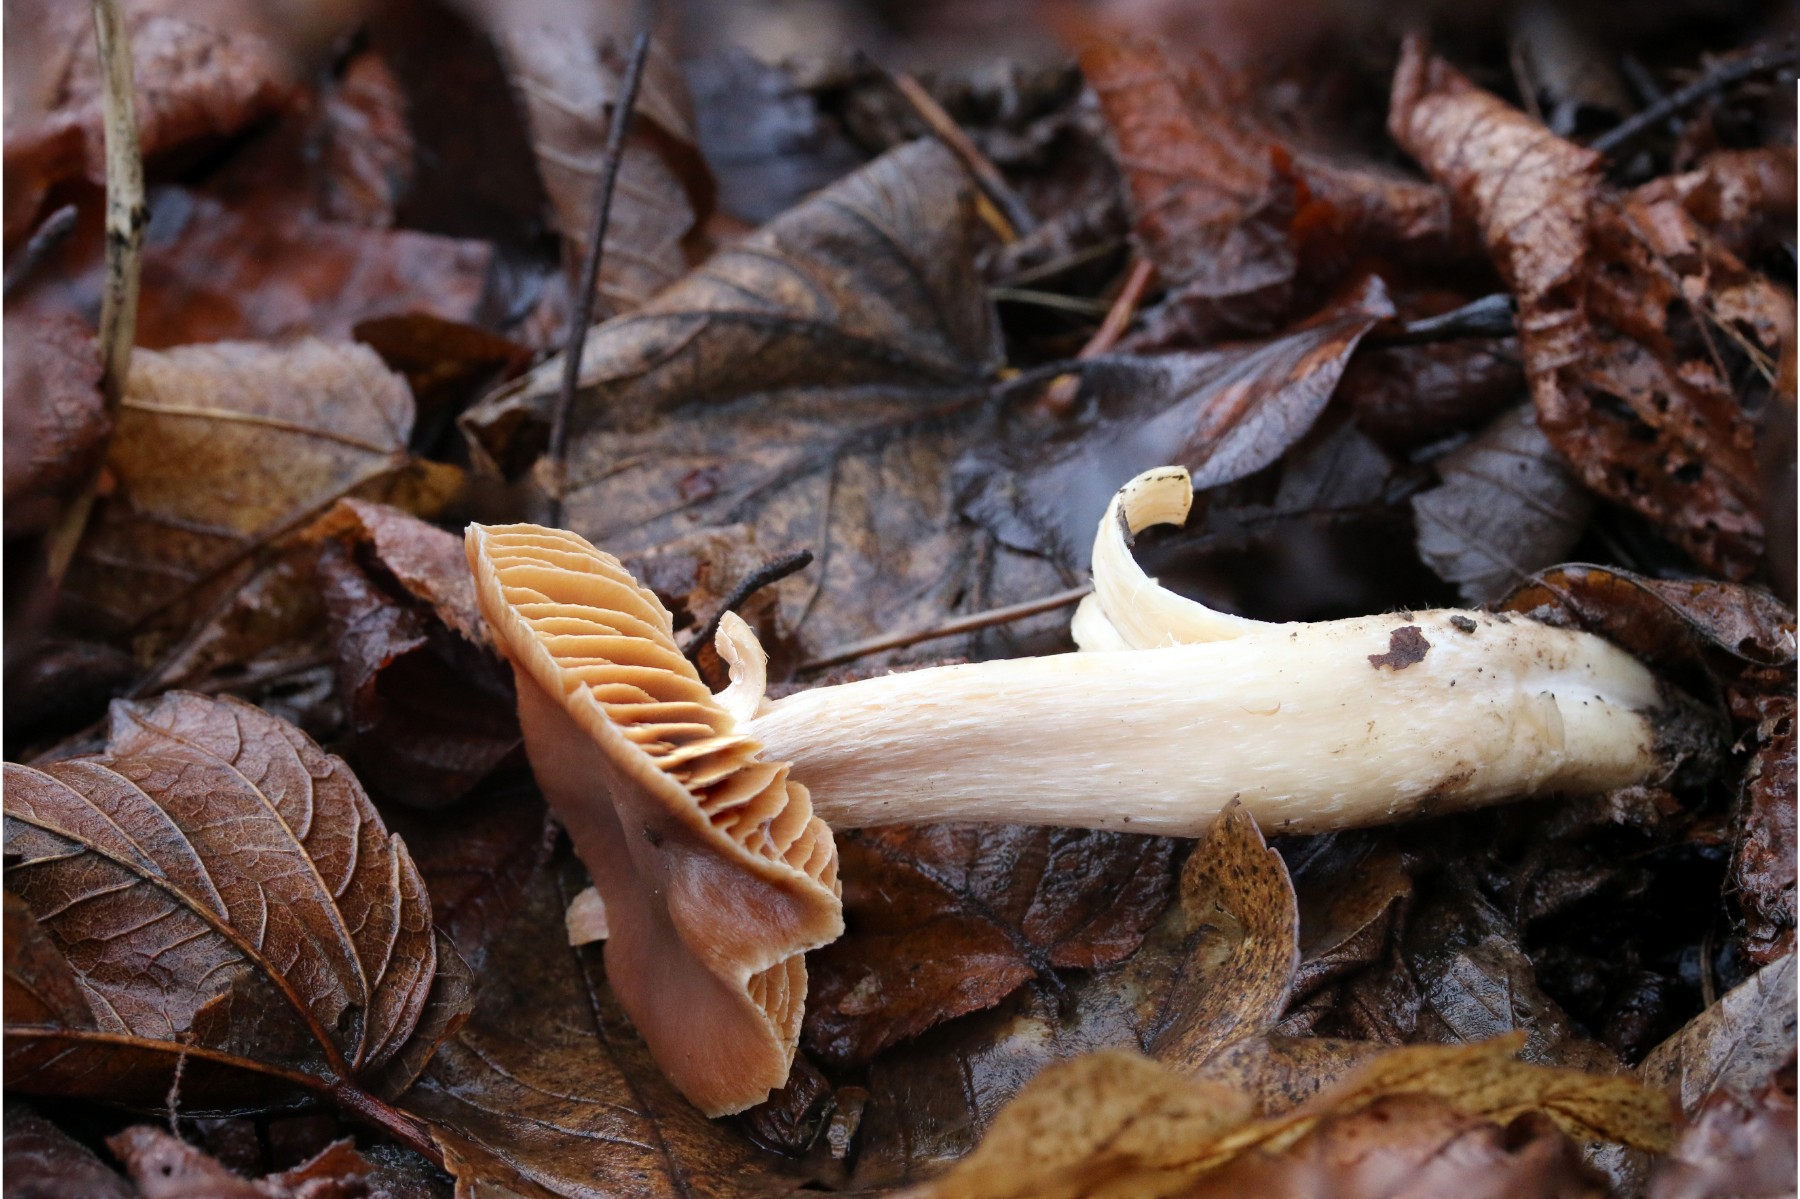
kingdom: Fungi
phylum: Basidiomycota
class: Agaricomycetes
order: Agaricales
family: Cortinariaceae
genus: Cortinarius
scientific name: Cortinarius
